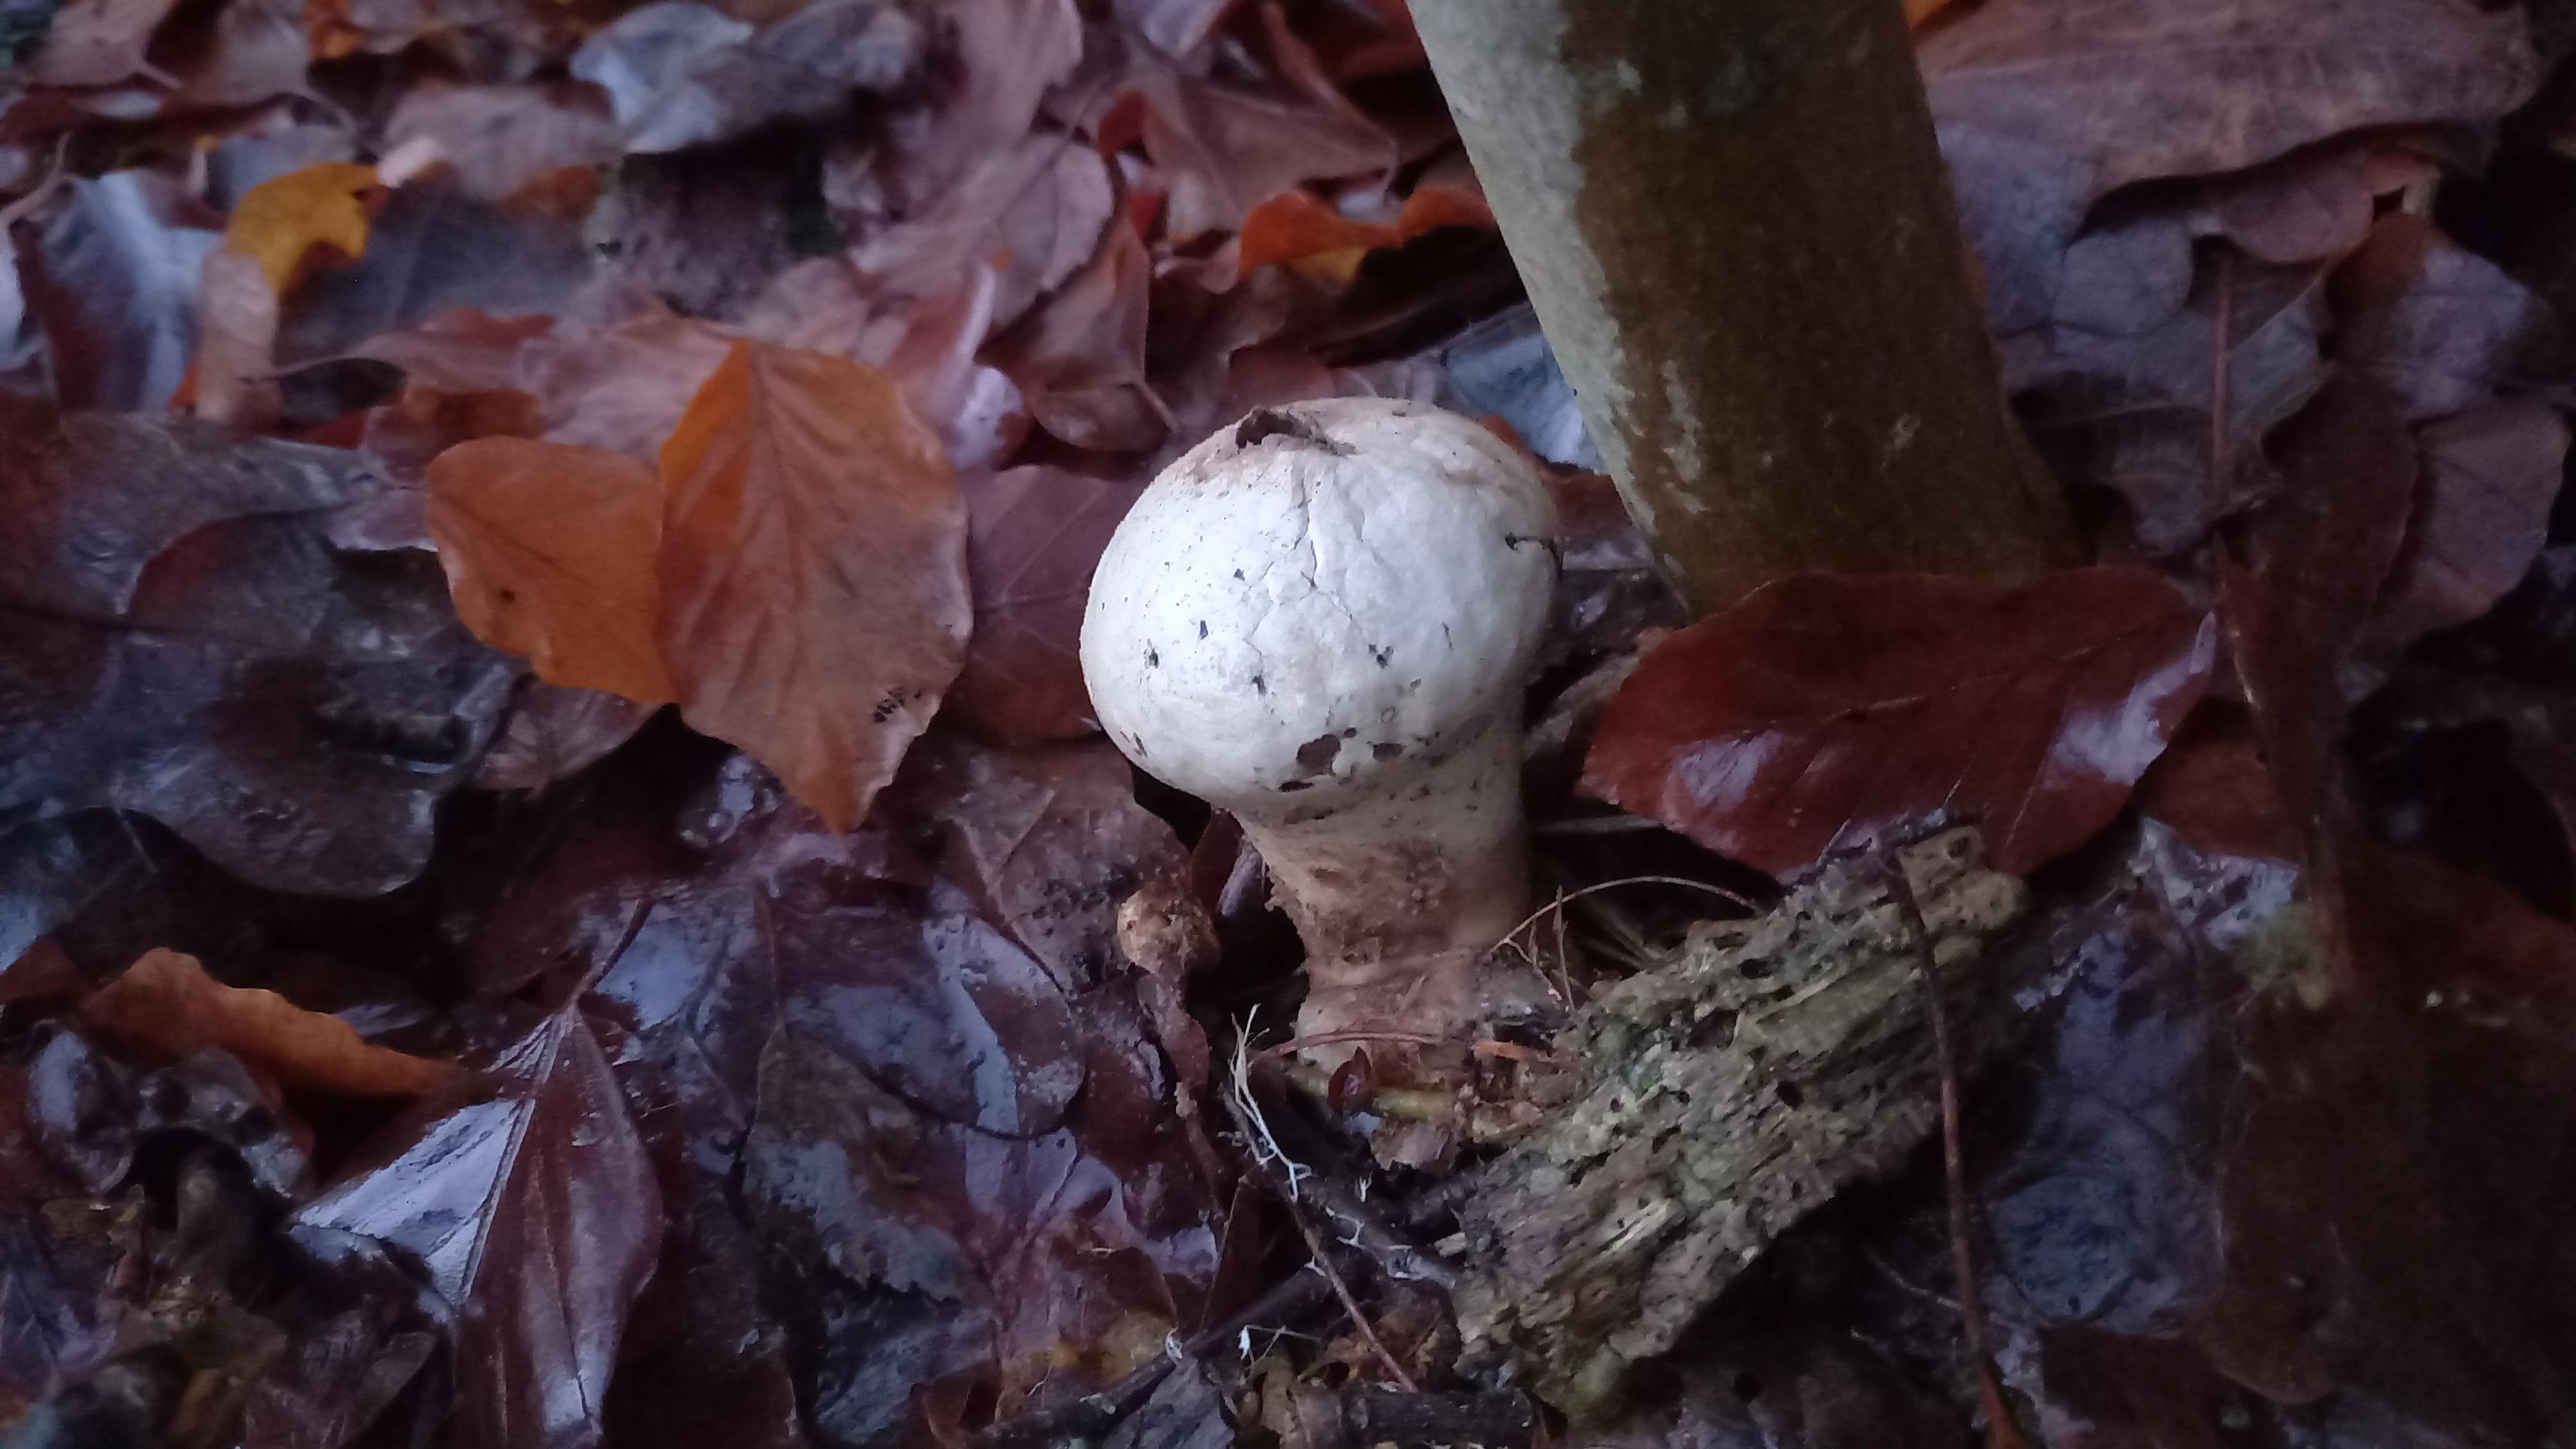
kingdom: Fungi
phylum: Basidiomycota
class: Agaricomycetes
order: Agaricales
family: Lycoperdaceae
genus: Lycoperdon
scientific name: Lycoperdon perlatum
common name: krystal-støvbold
